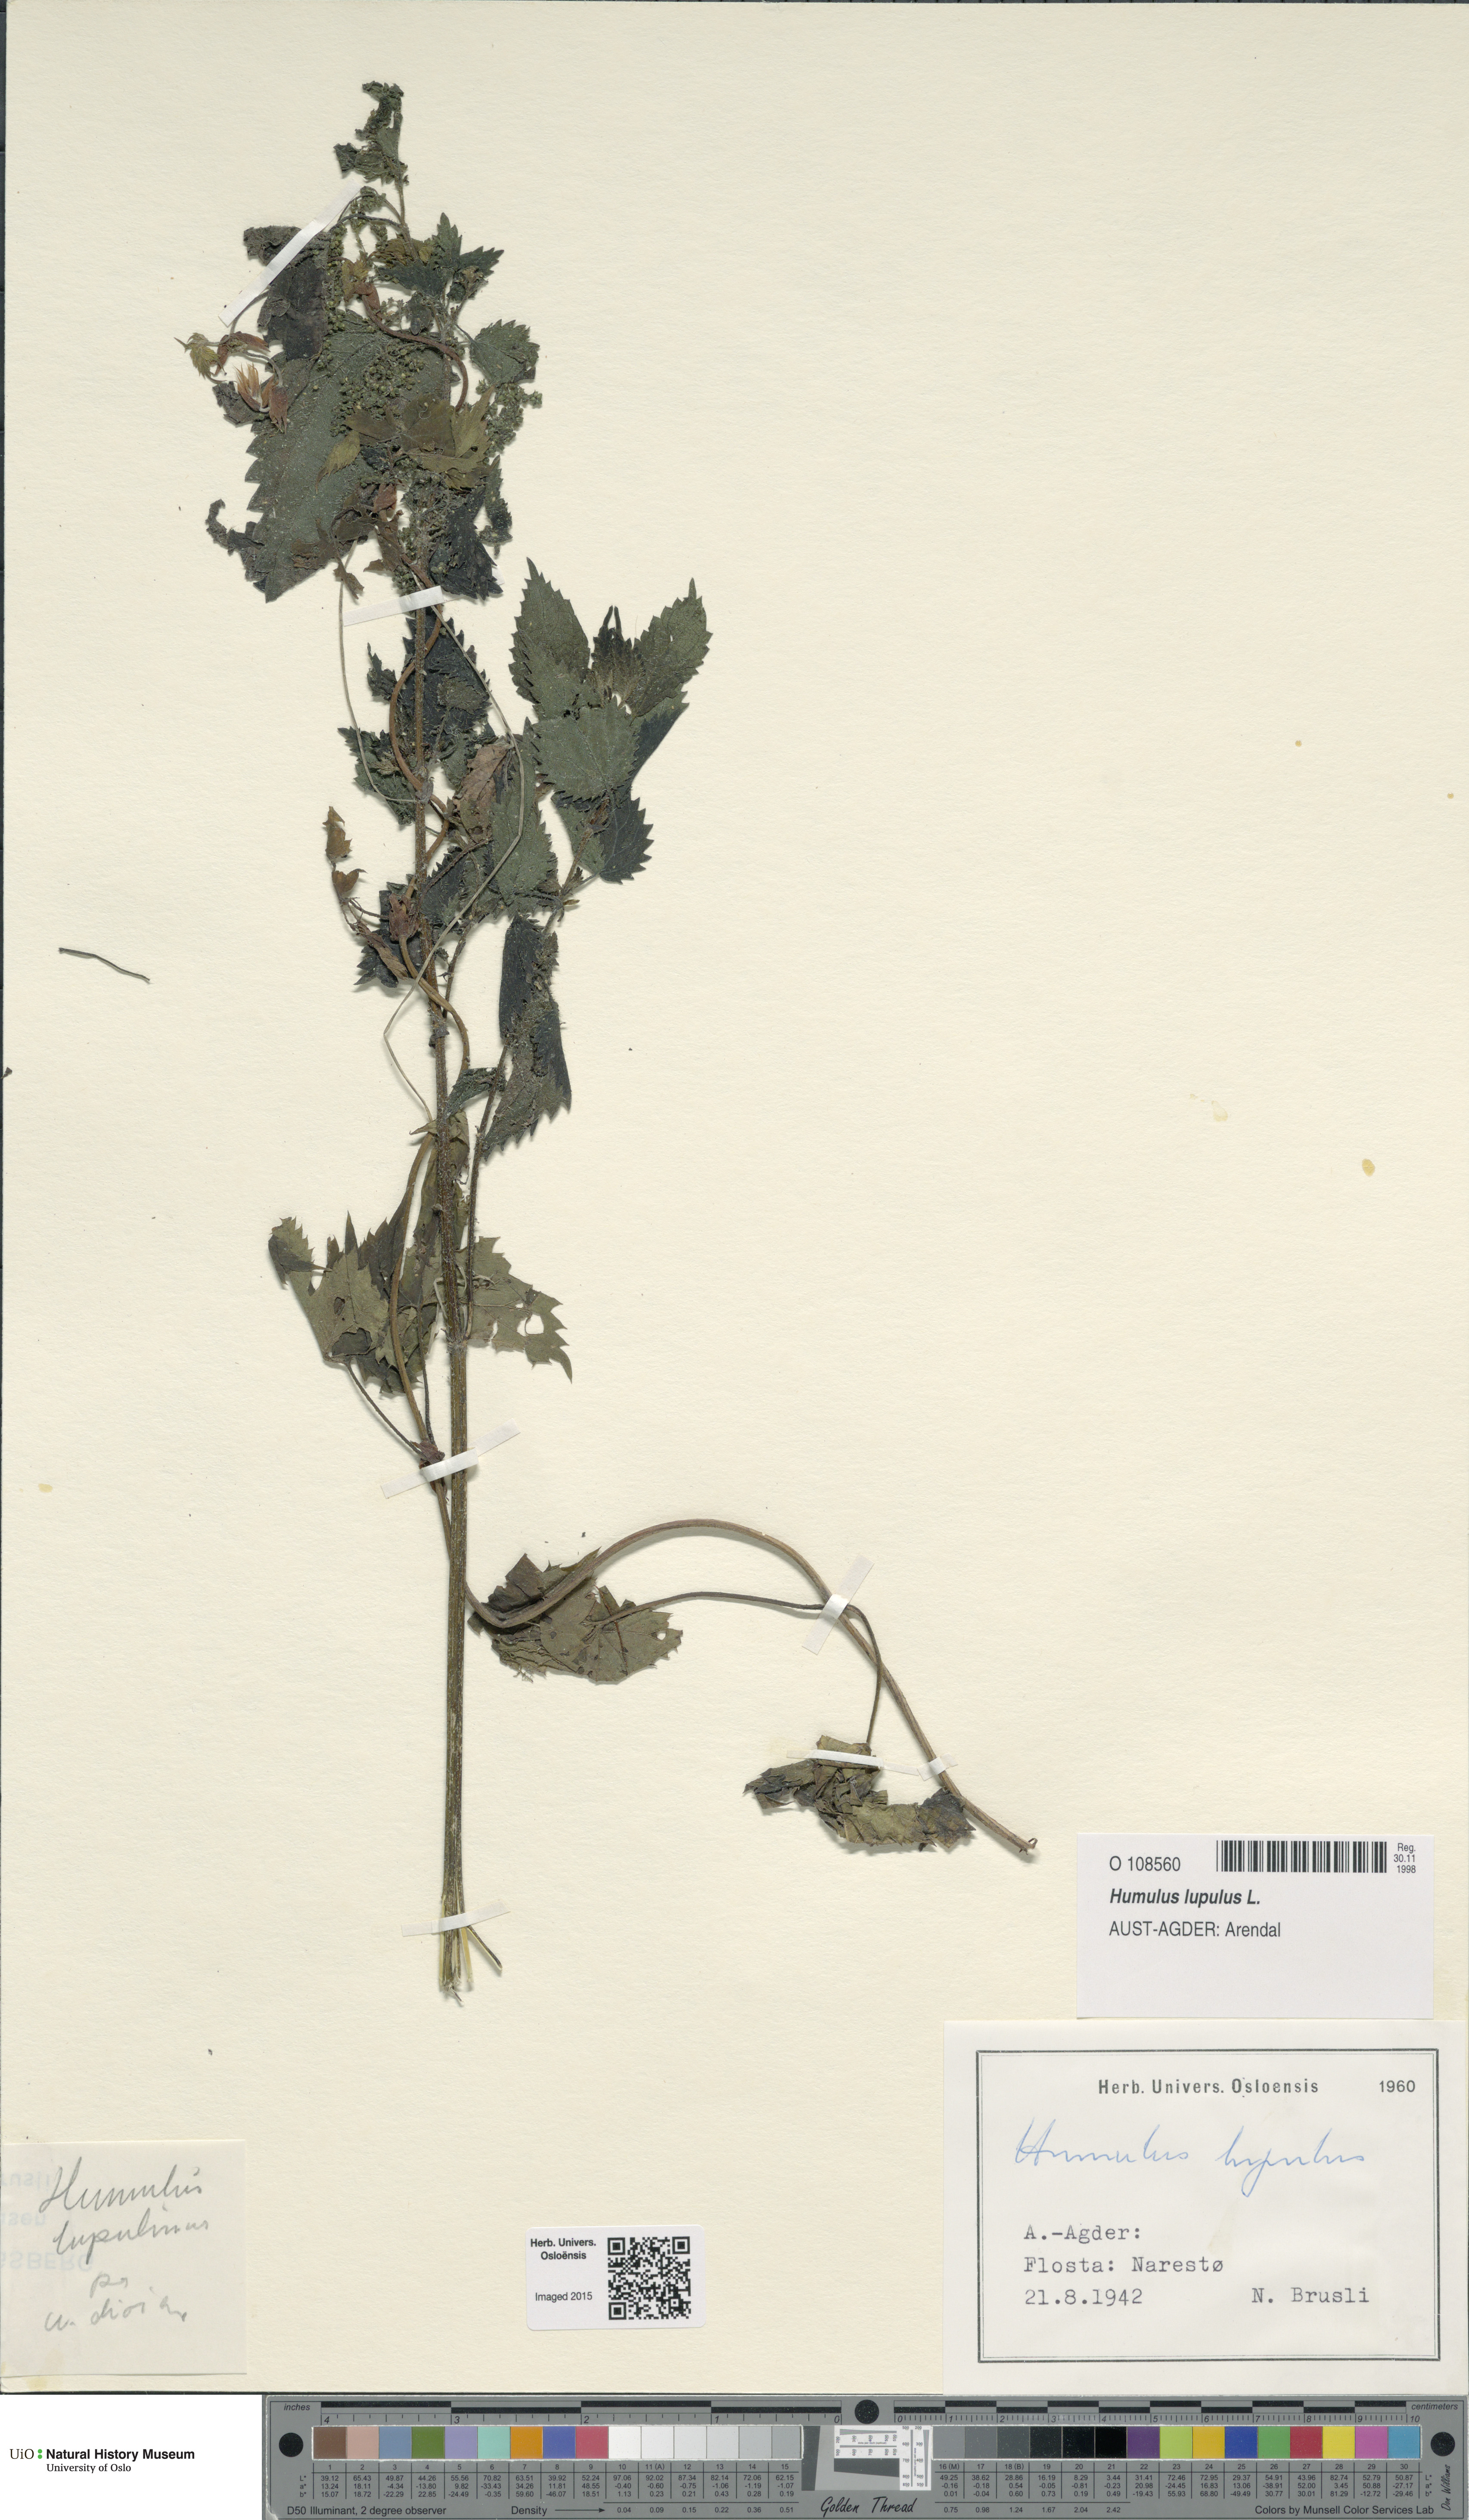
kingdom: Plantae
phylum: Tracheophyta
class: Magnoliopsida
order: Rosales
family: Cannabaceae
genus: Humulus
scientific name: Humulus lupulus
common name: Hop
